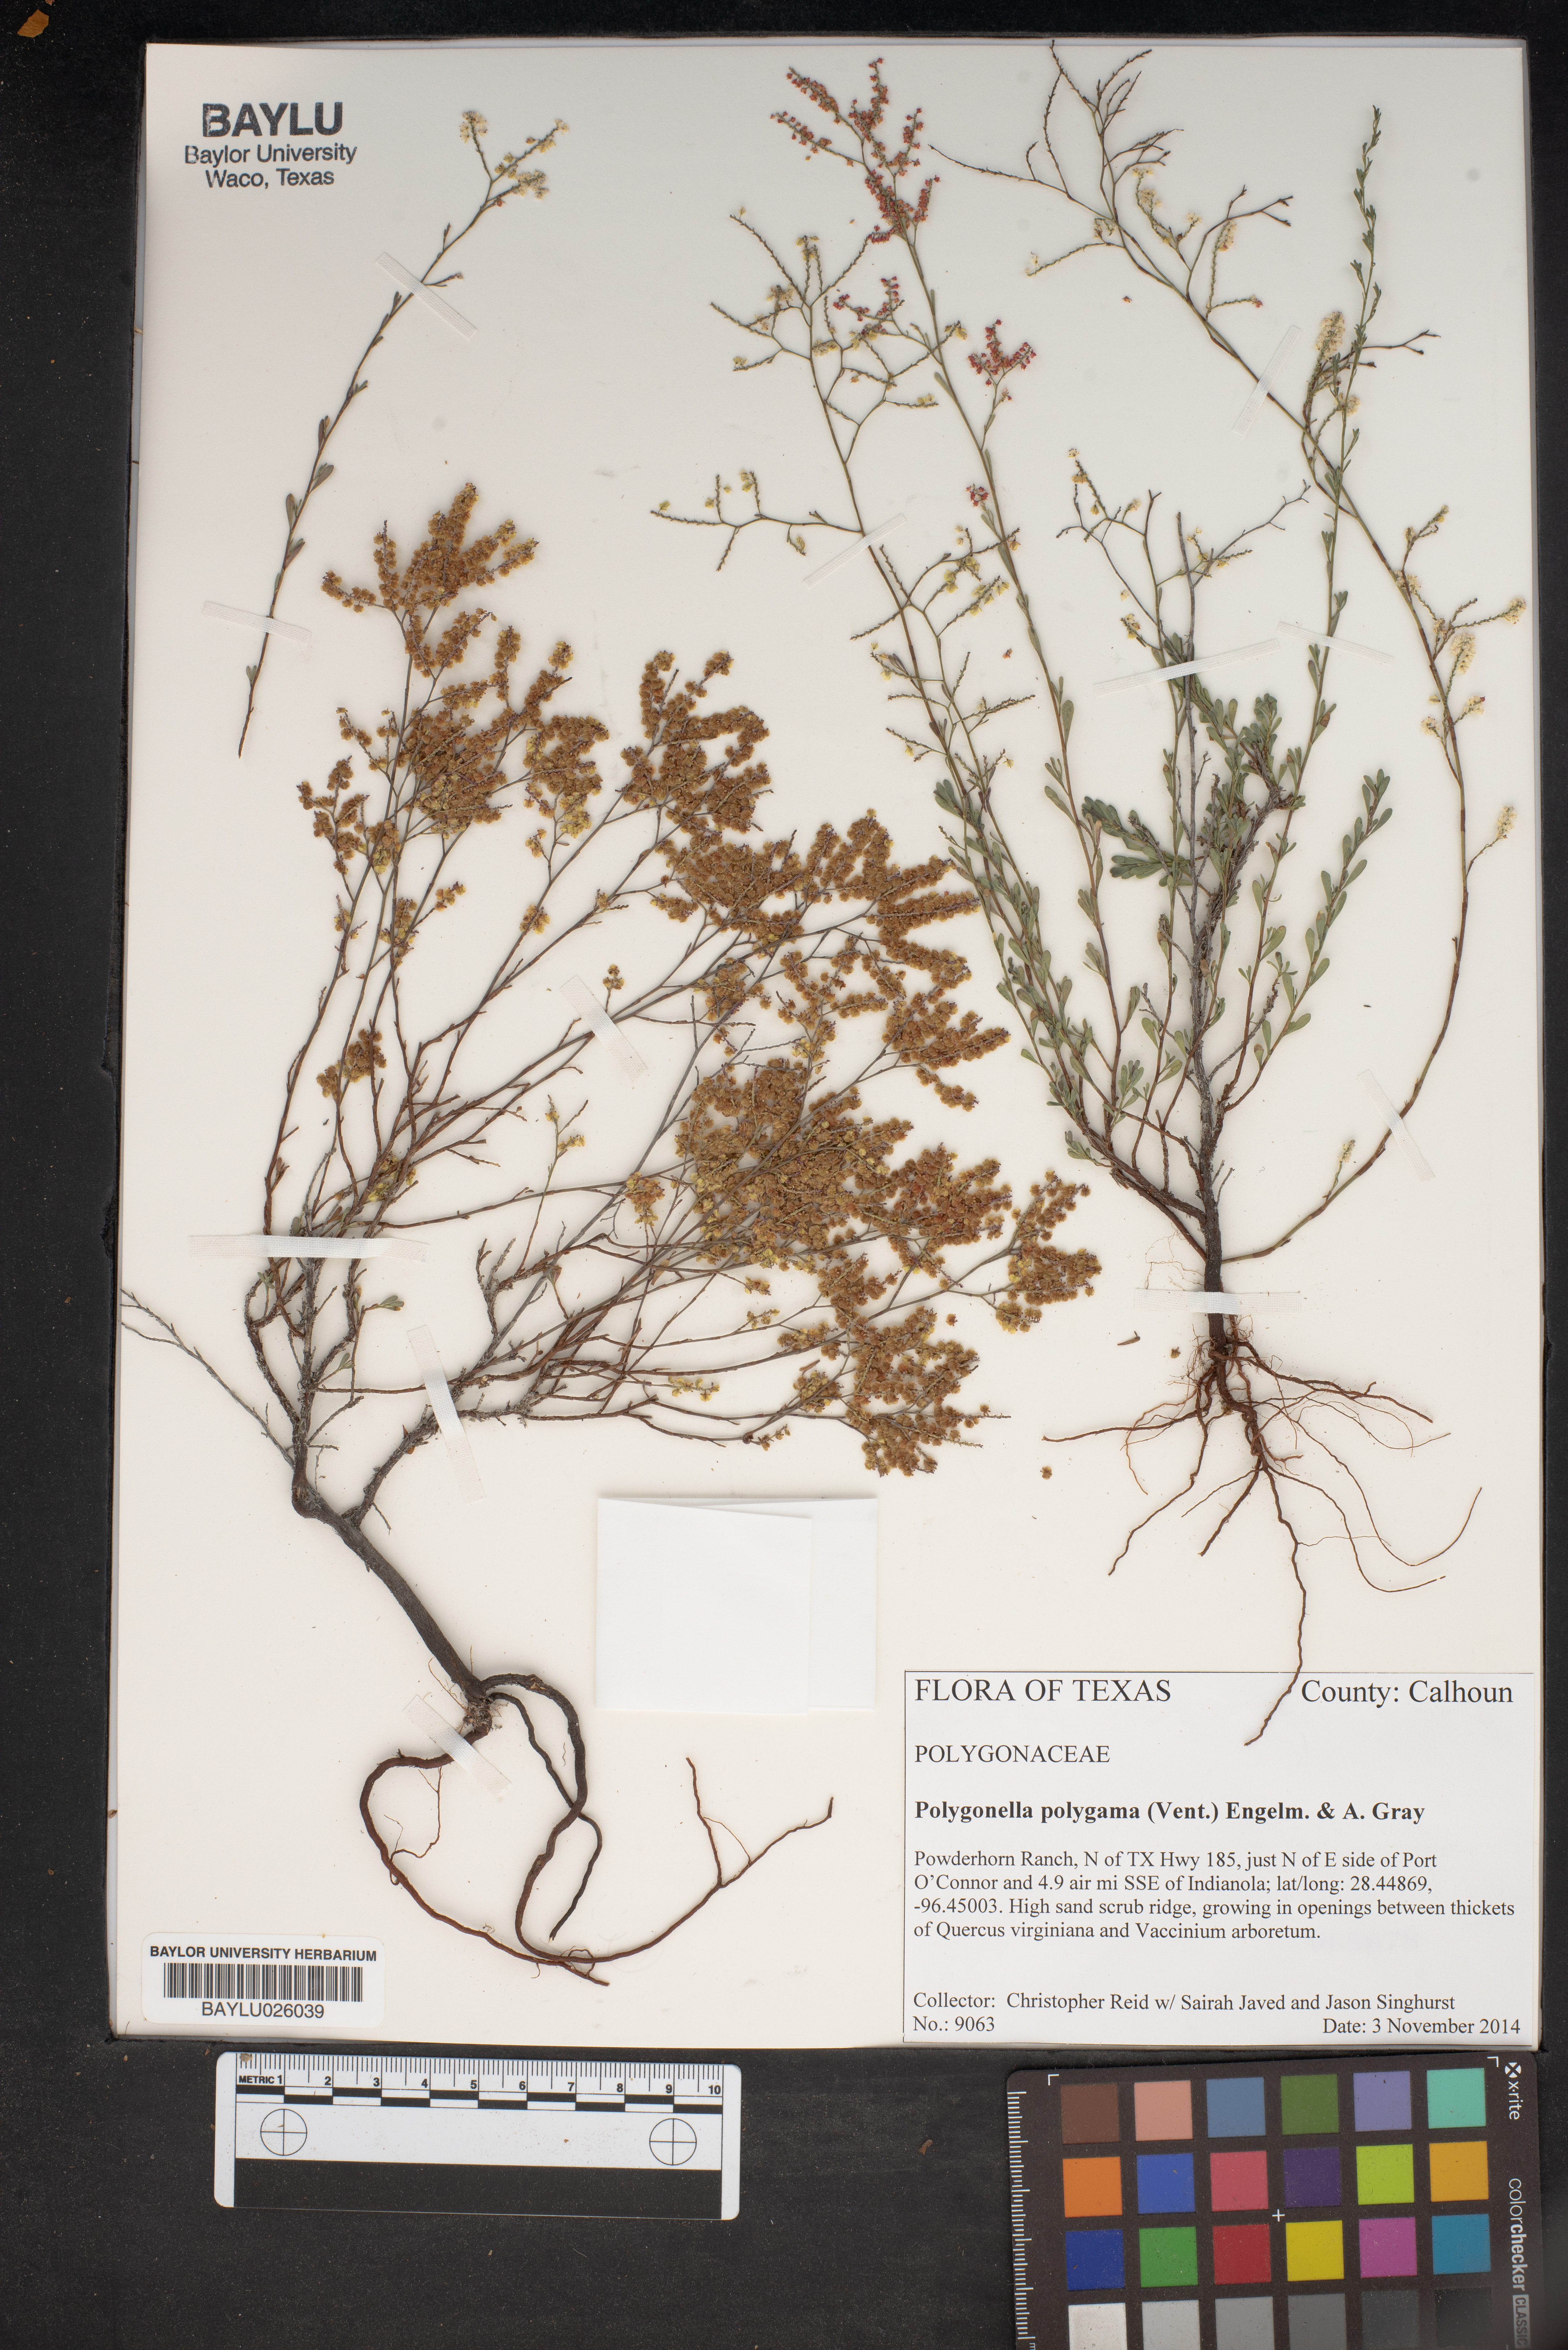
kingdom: Plantae
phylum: Tracheophyta
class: Magnoliopsida
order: Caryophyllales
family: Polygonaceae
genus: Polygonella
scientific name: Polygonella polygama
